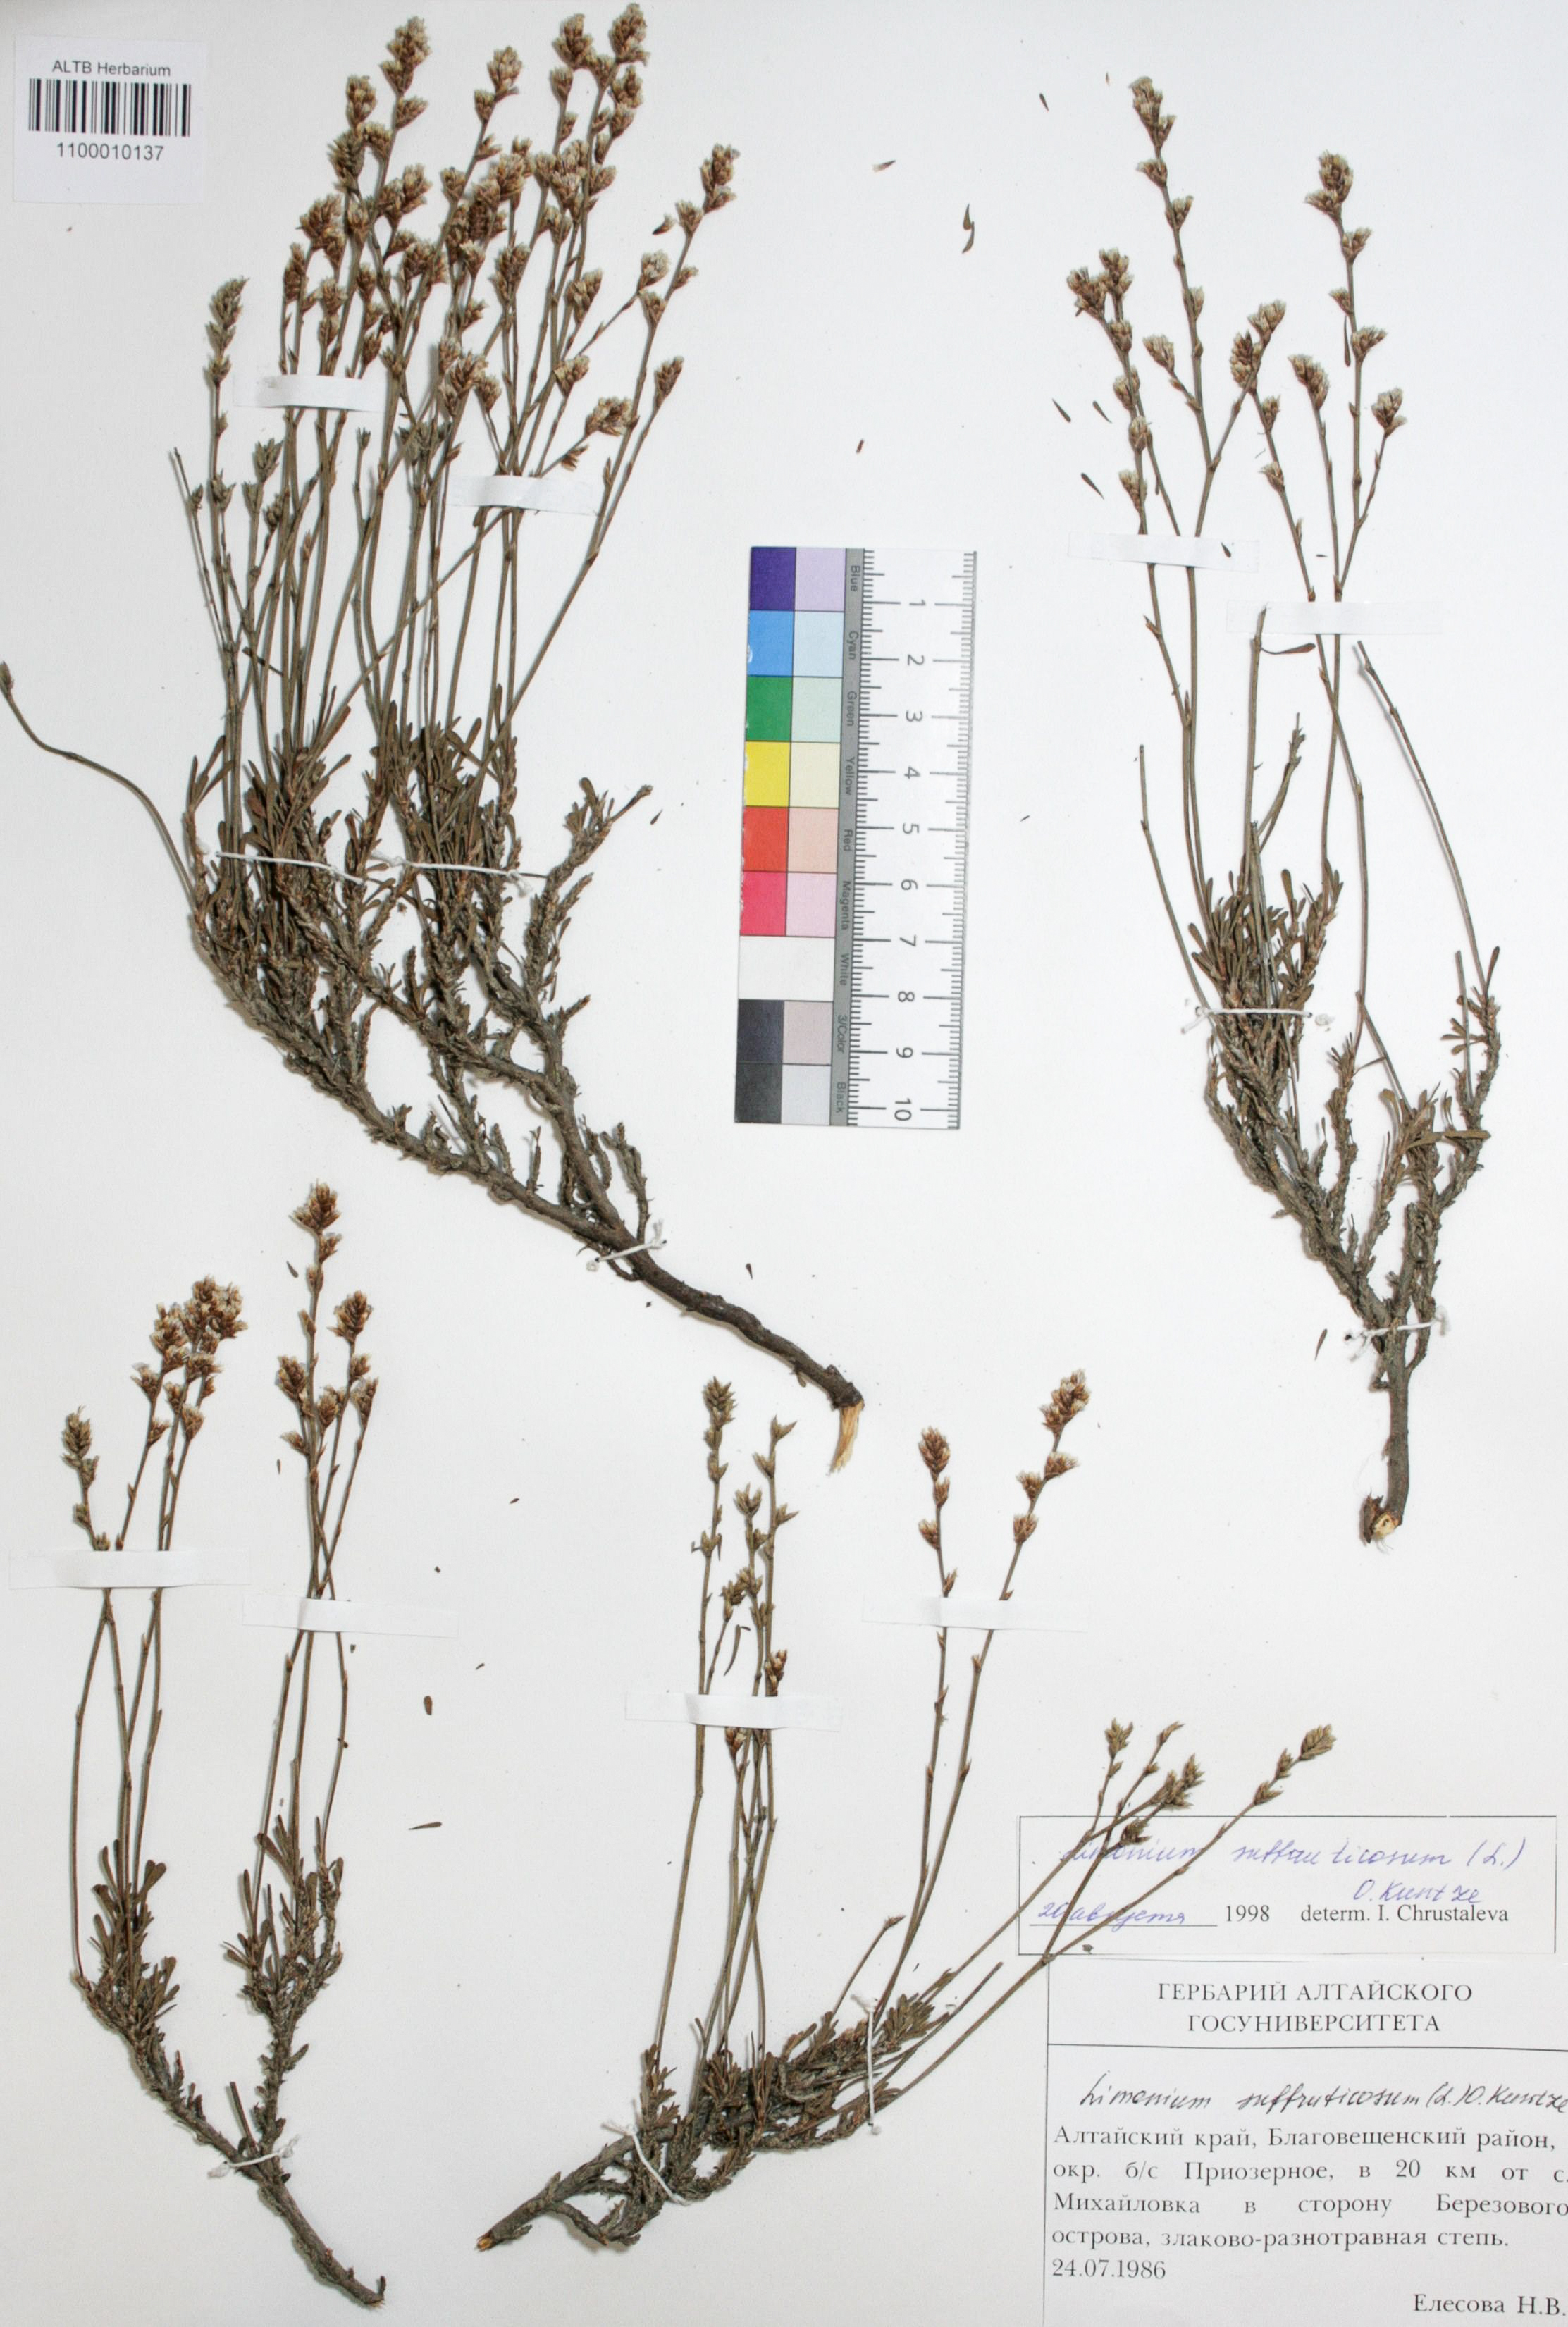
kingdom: Plantae
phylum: Tracheophyta
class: Magnoliopsida
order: Caryophyllales
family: Plumbaginaceae
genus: Limonium
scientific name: Limonium suffruticosum
